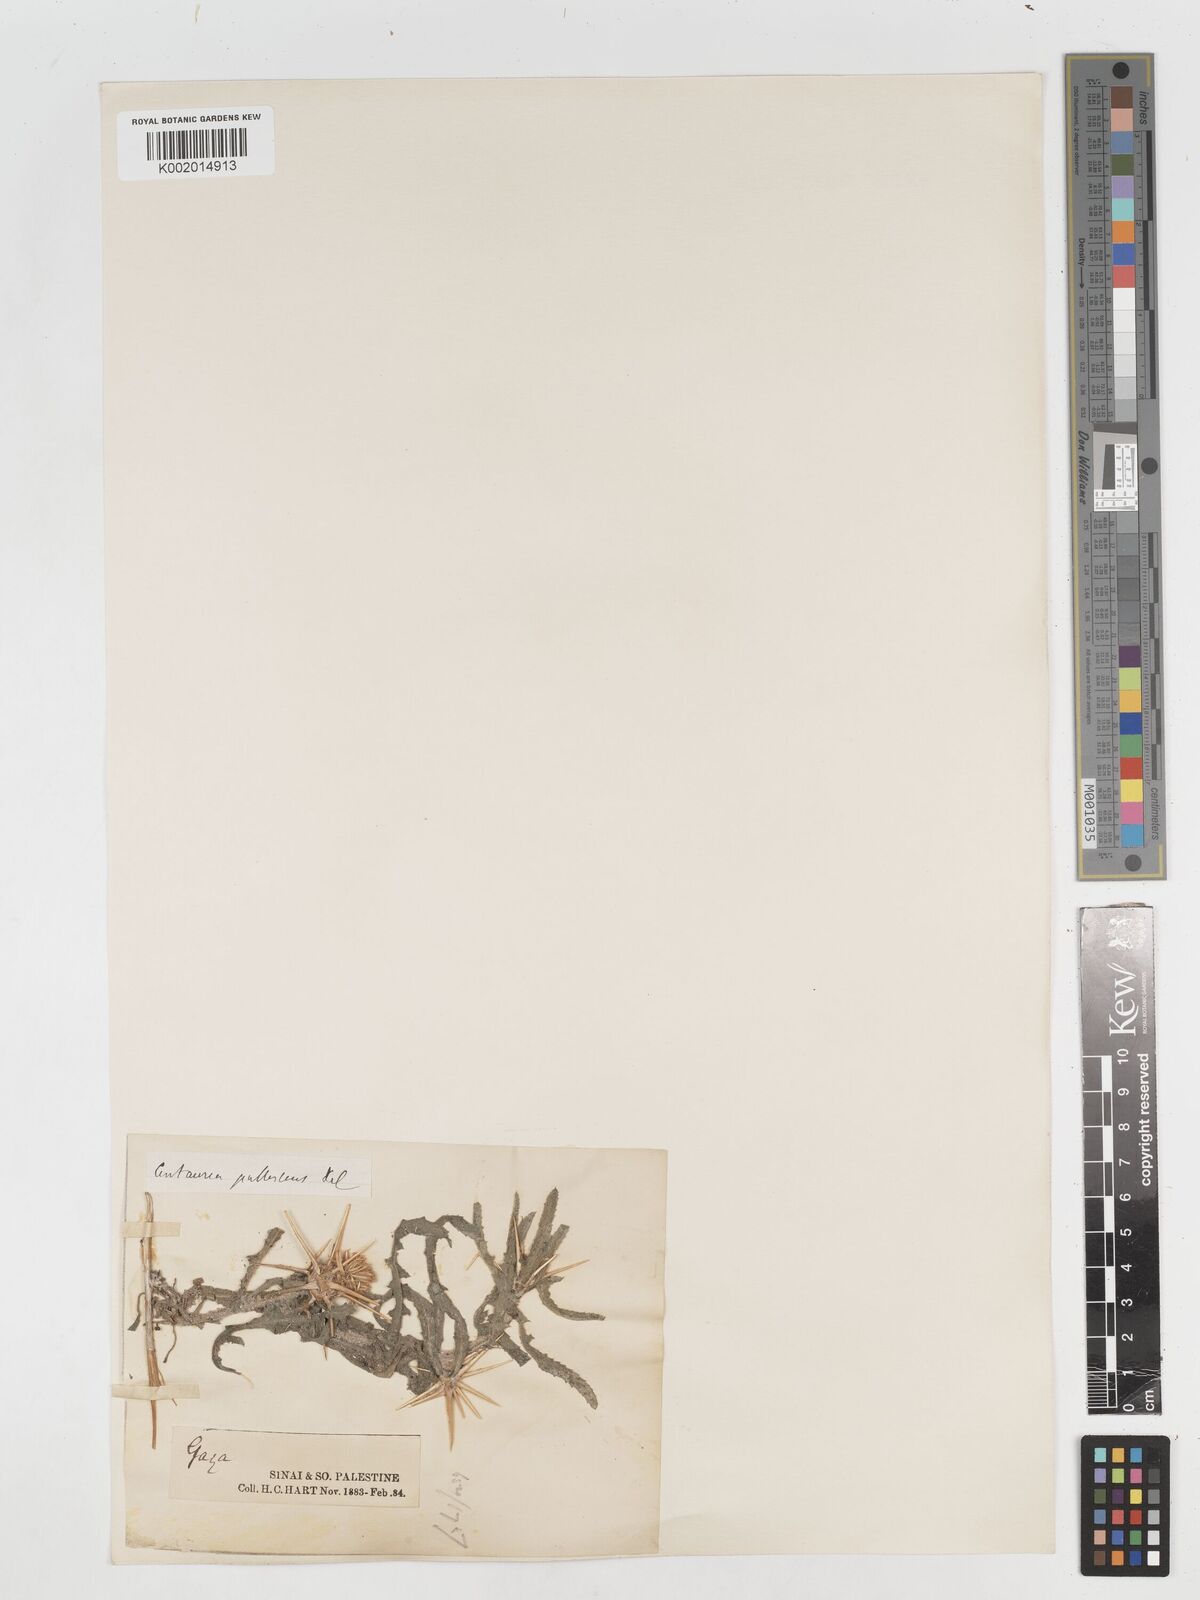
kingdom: Plantae
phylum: Tracheophyta
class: Magnoliopsida
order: Asterales
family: Asteraceae
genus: Centaurea
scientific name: Centaurea procurrens
